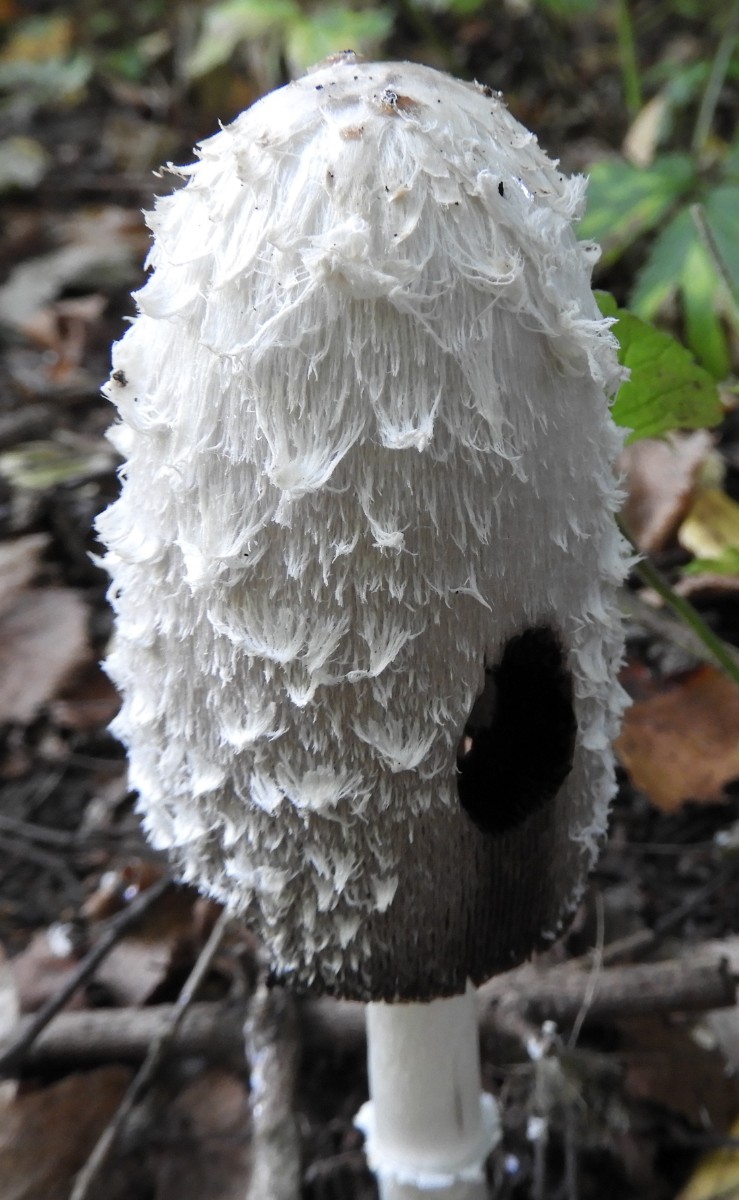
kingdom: Fungi
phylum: Basidiomycota
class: Agaricomycetes
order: Agaricales
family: Agaricaceae
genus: Coprinus
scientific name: Coprinus comatus
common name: stor parykhat
